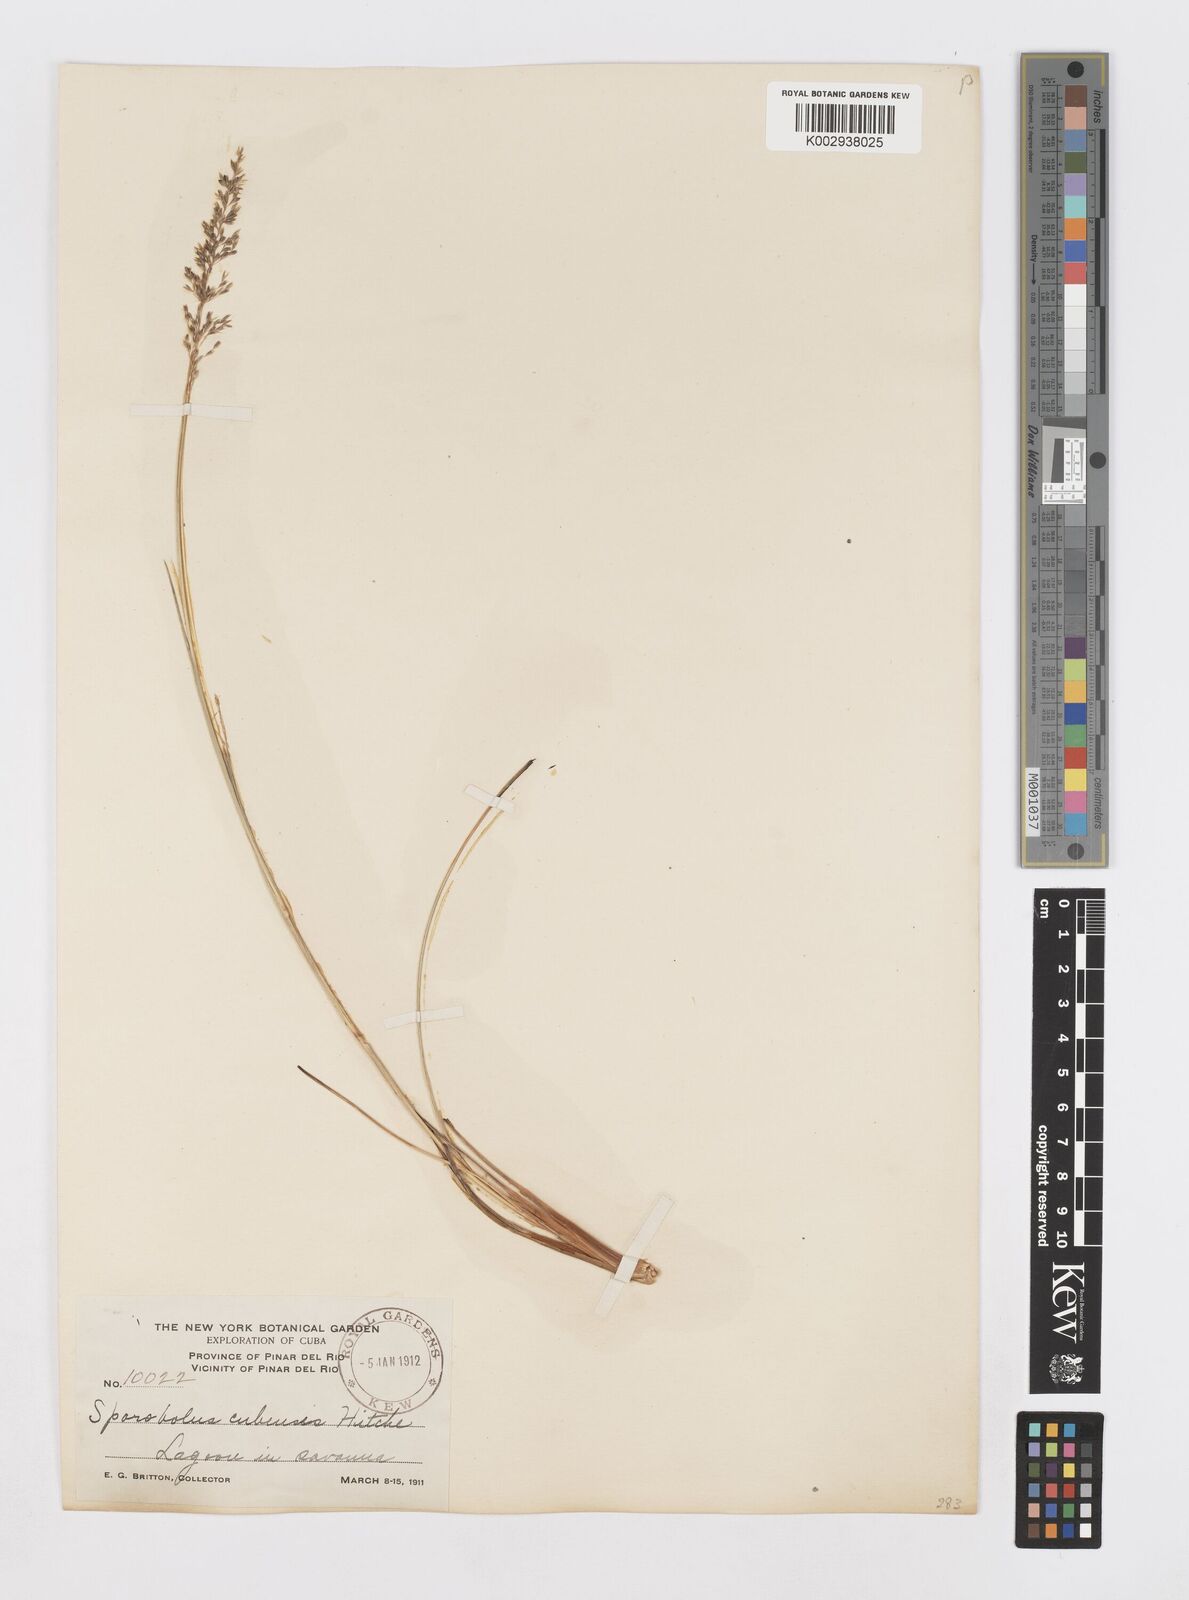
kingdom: Plantae
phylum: Tracheophyta
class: Liliopsida
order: Poales
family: Poaceae
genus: Sporobolus
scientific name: Sporobolus cubensis
